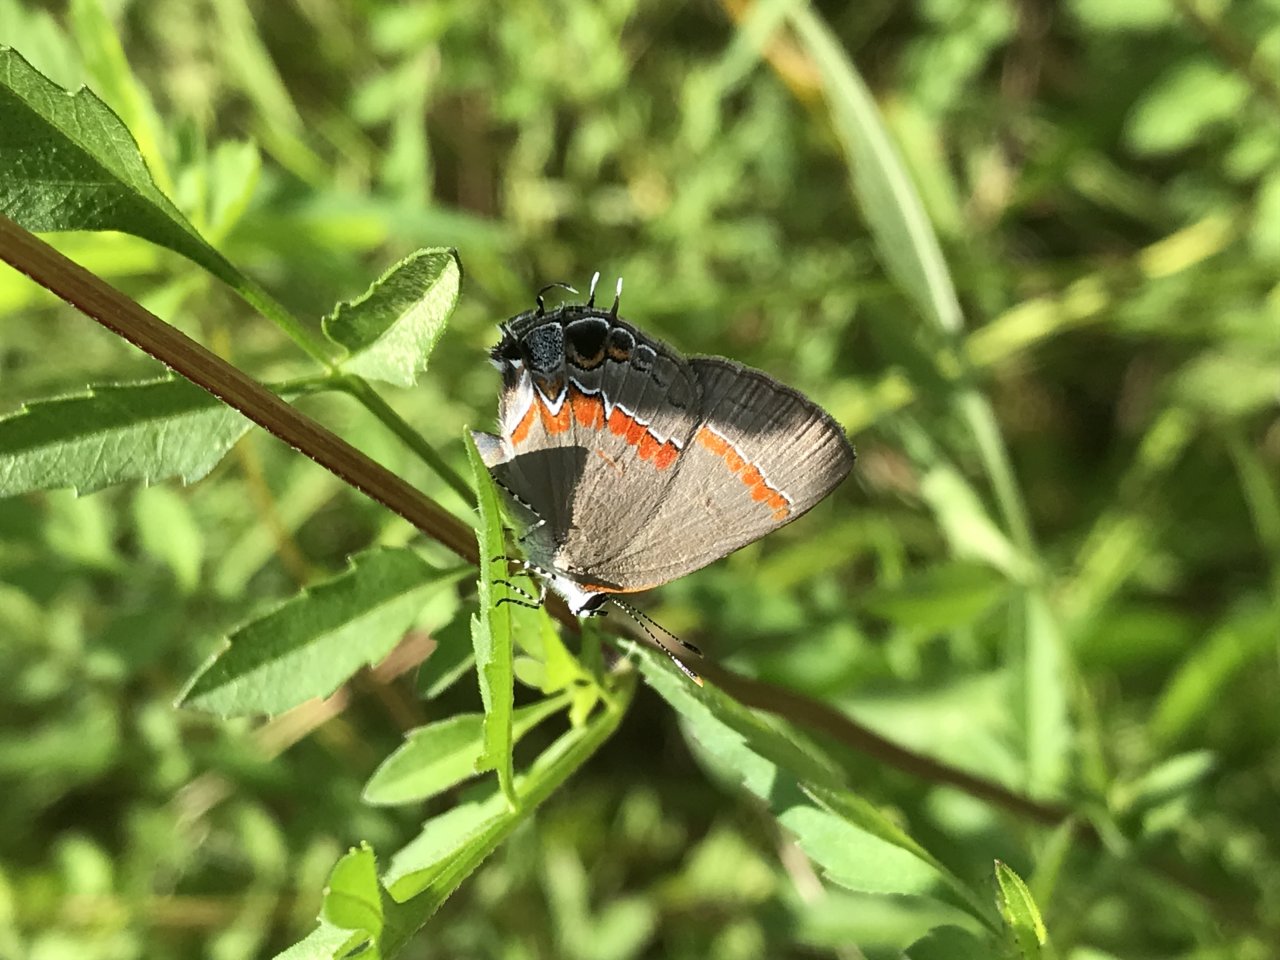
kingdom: Animalia
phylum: Arthropoda
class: Insecta
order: Lepidoptera
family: Lycaenidae
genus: Calycopis
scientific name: Calycopis cecrops
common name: Red-banded Hairstreak
